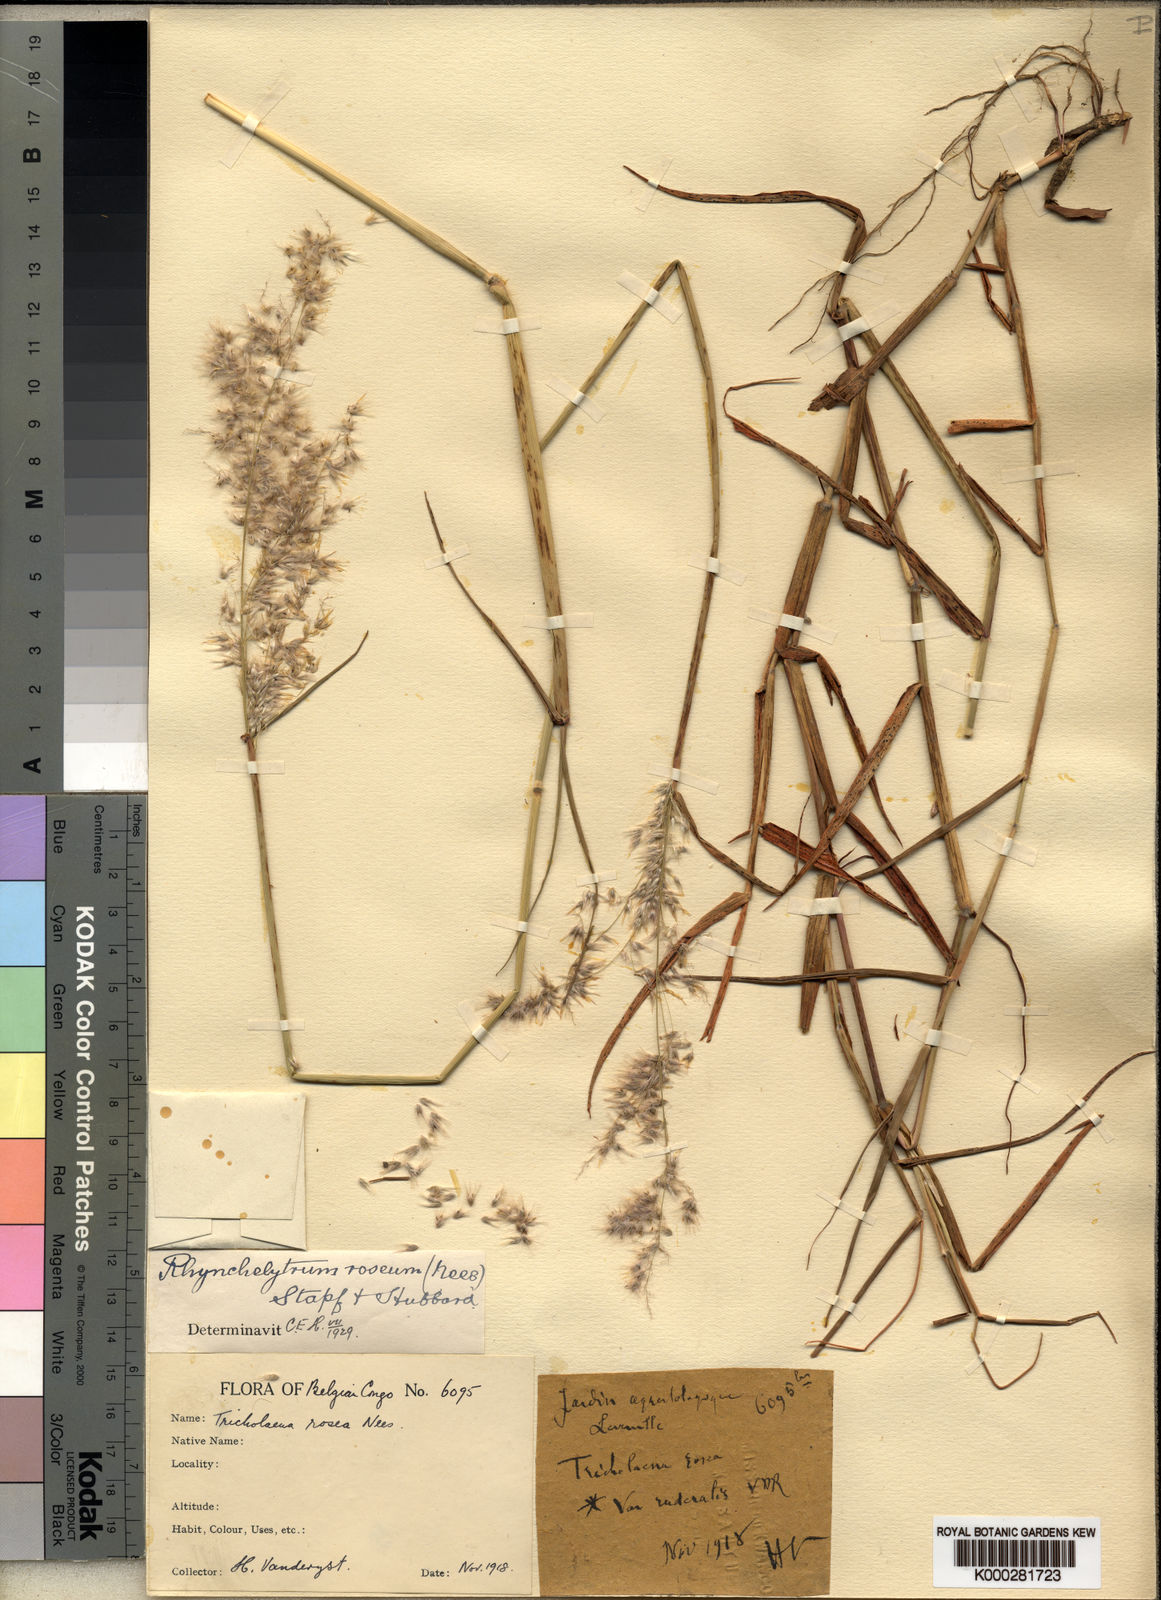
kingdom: Plantae
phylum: Tracheophyta
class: Liliopsida
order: Poales
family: Poaceae
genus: Melinis
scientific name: Melinis repens
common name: Rose natal grass
